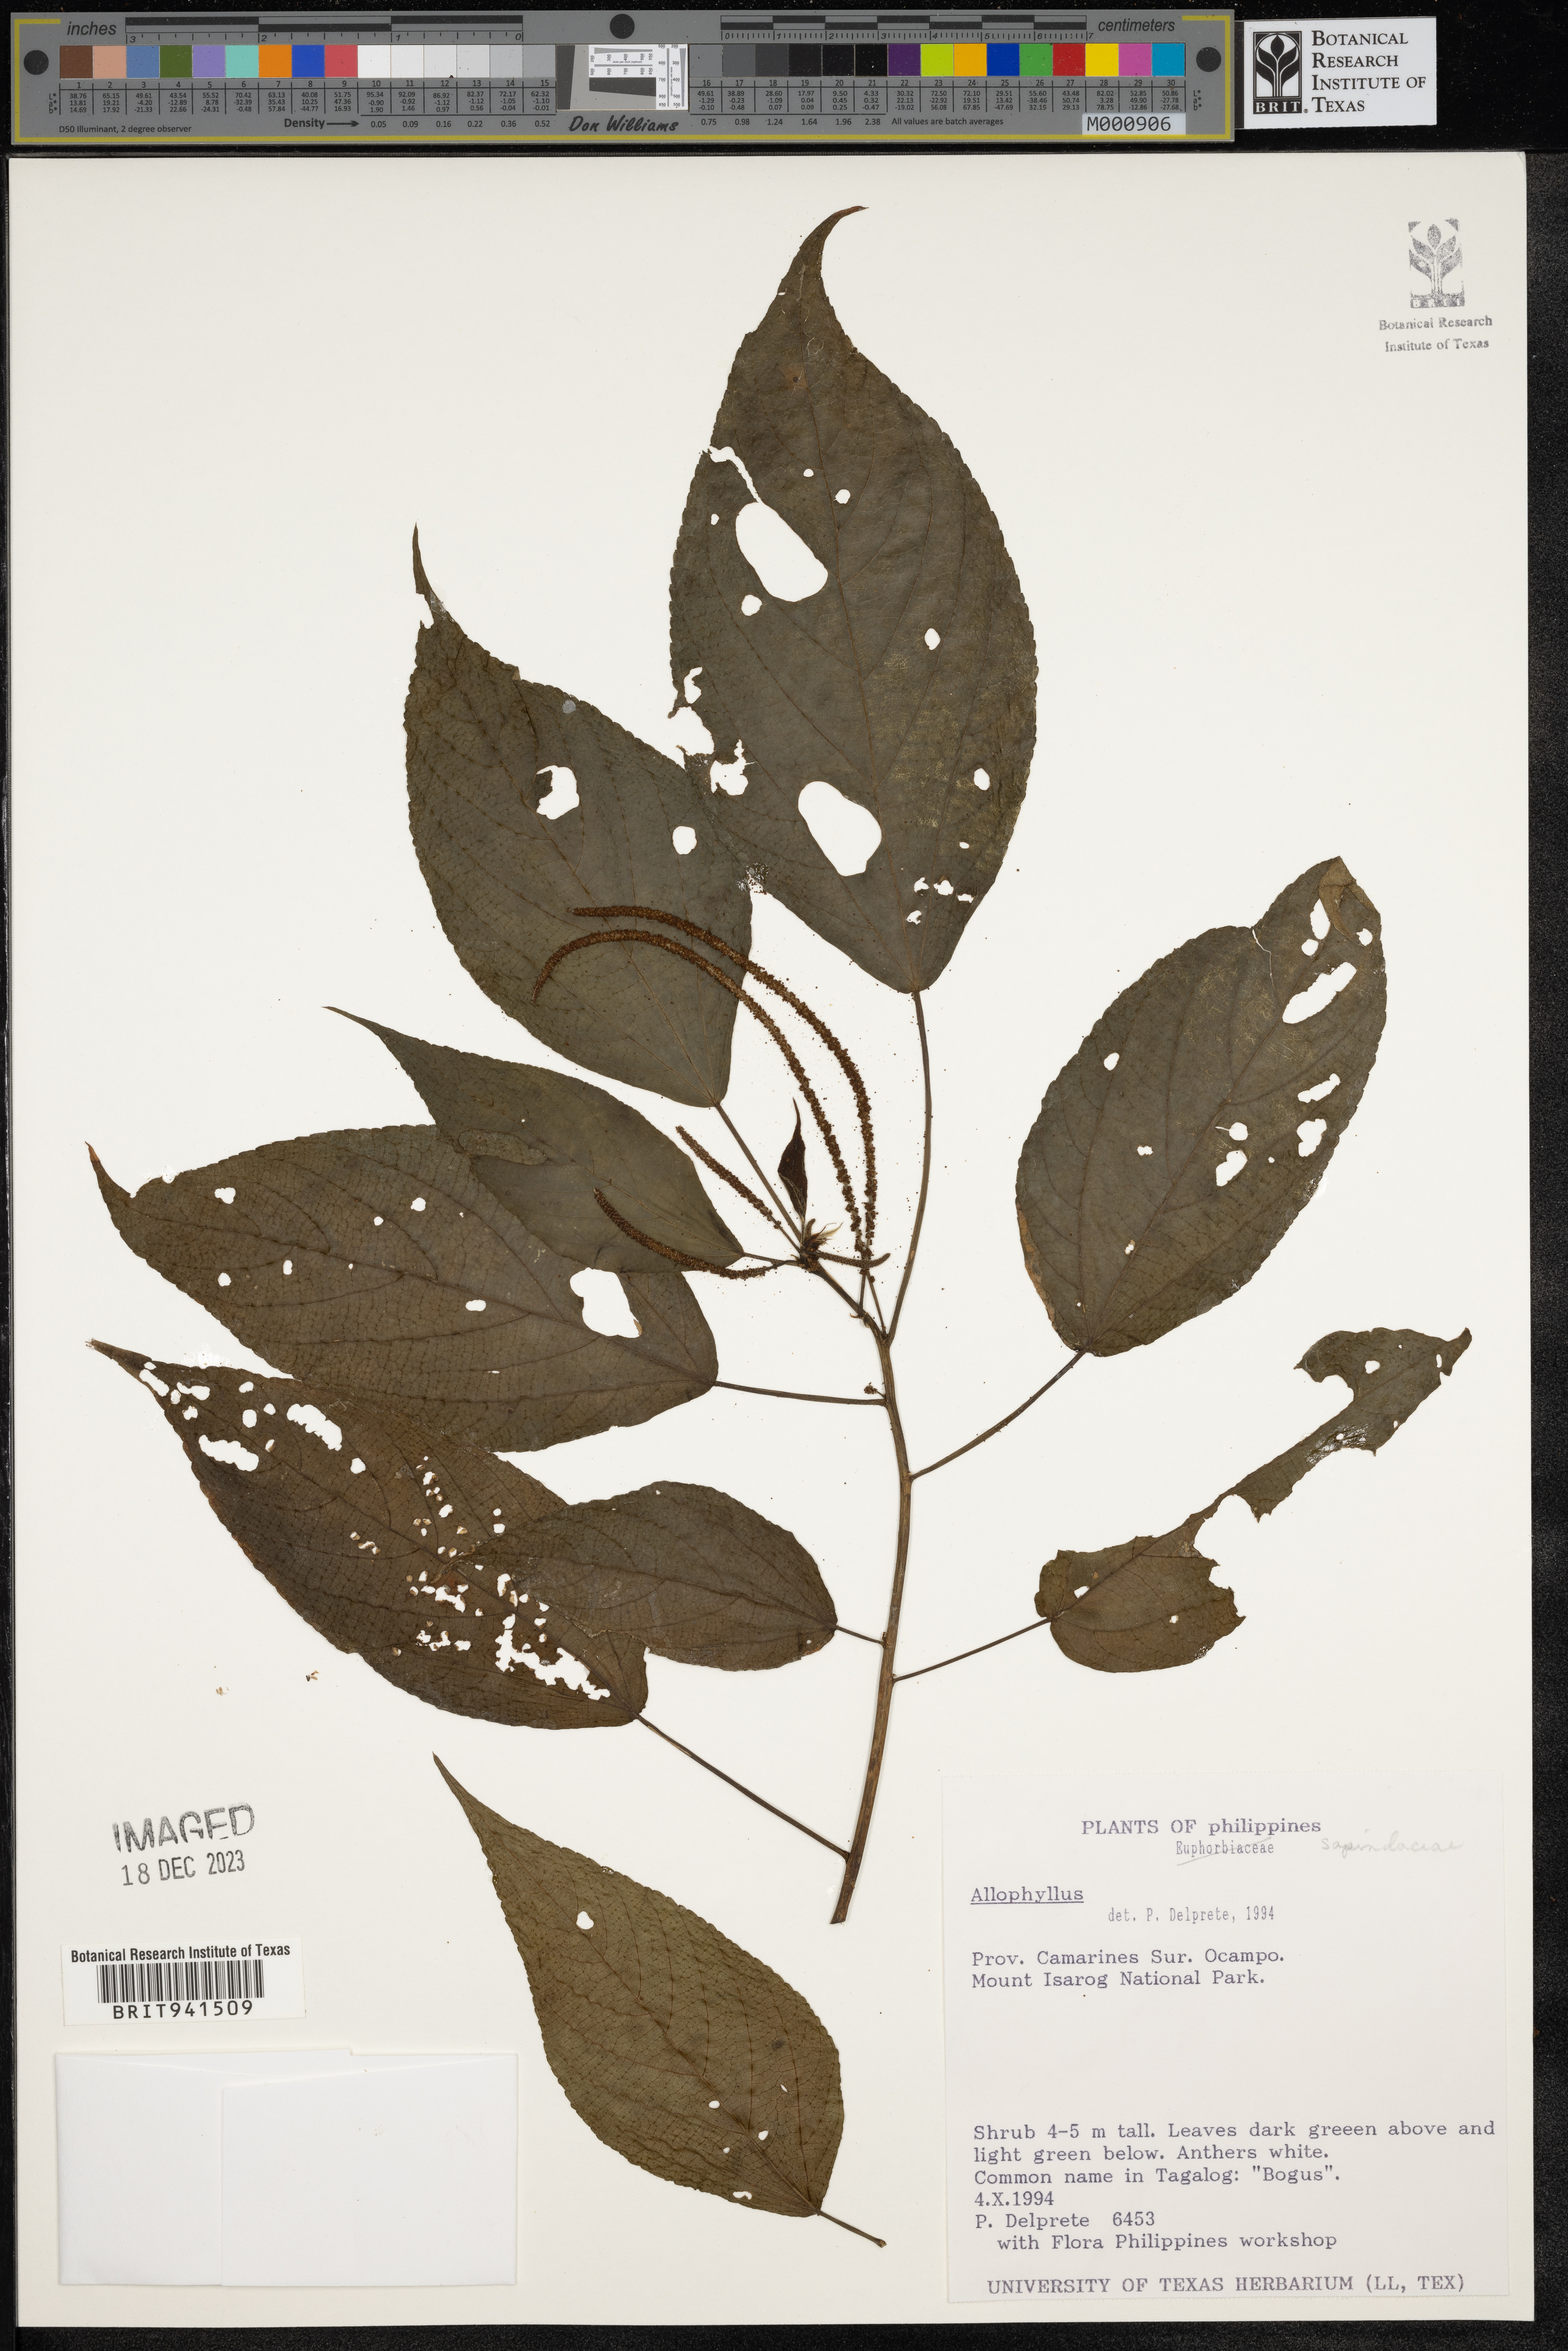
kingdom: Plantae
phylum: Tracheophyta
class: Magnoliopsida
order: Ericales
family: Polemoniaceae
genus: Allophyllum
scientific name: Allophyllum
